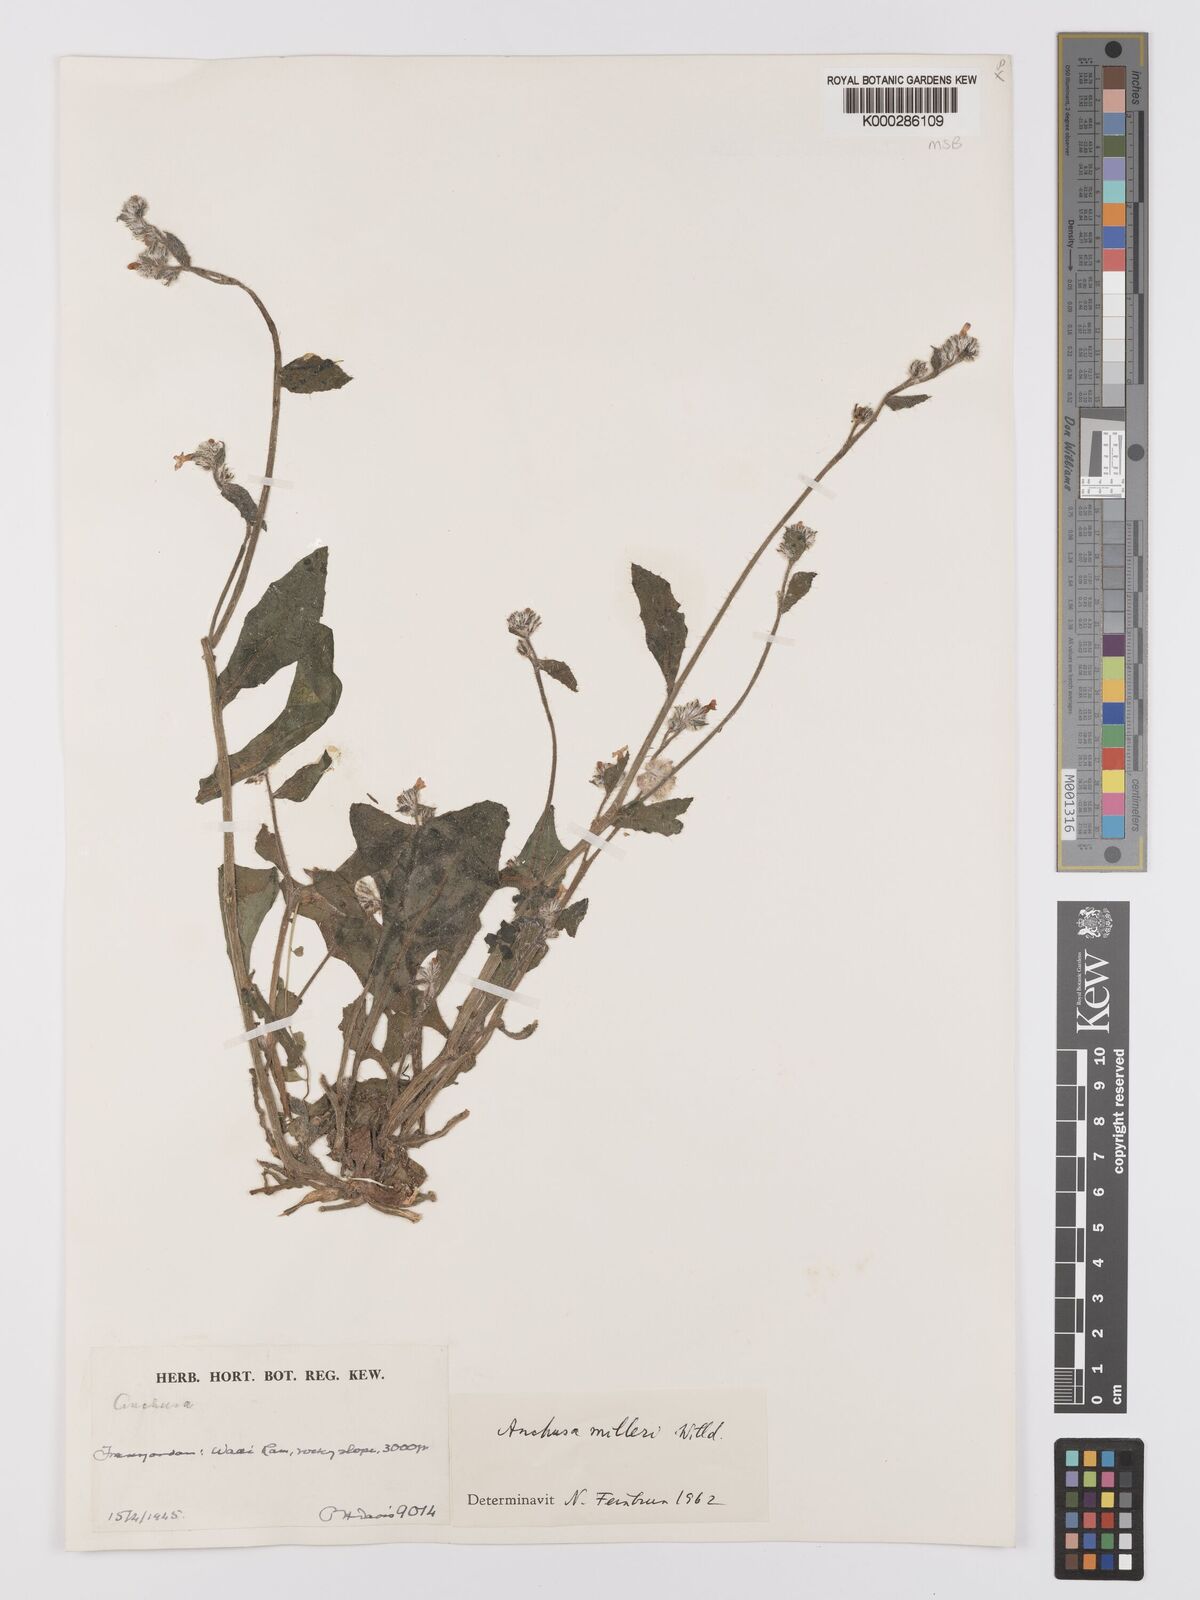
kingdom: Plantae
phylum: Tracheophyta
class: Magnoliopsida
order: Boraginales
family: Boraginaceae
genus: Anchusa
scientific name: Anchusa
